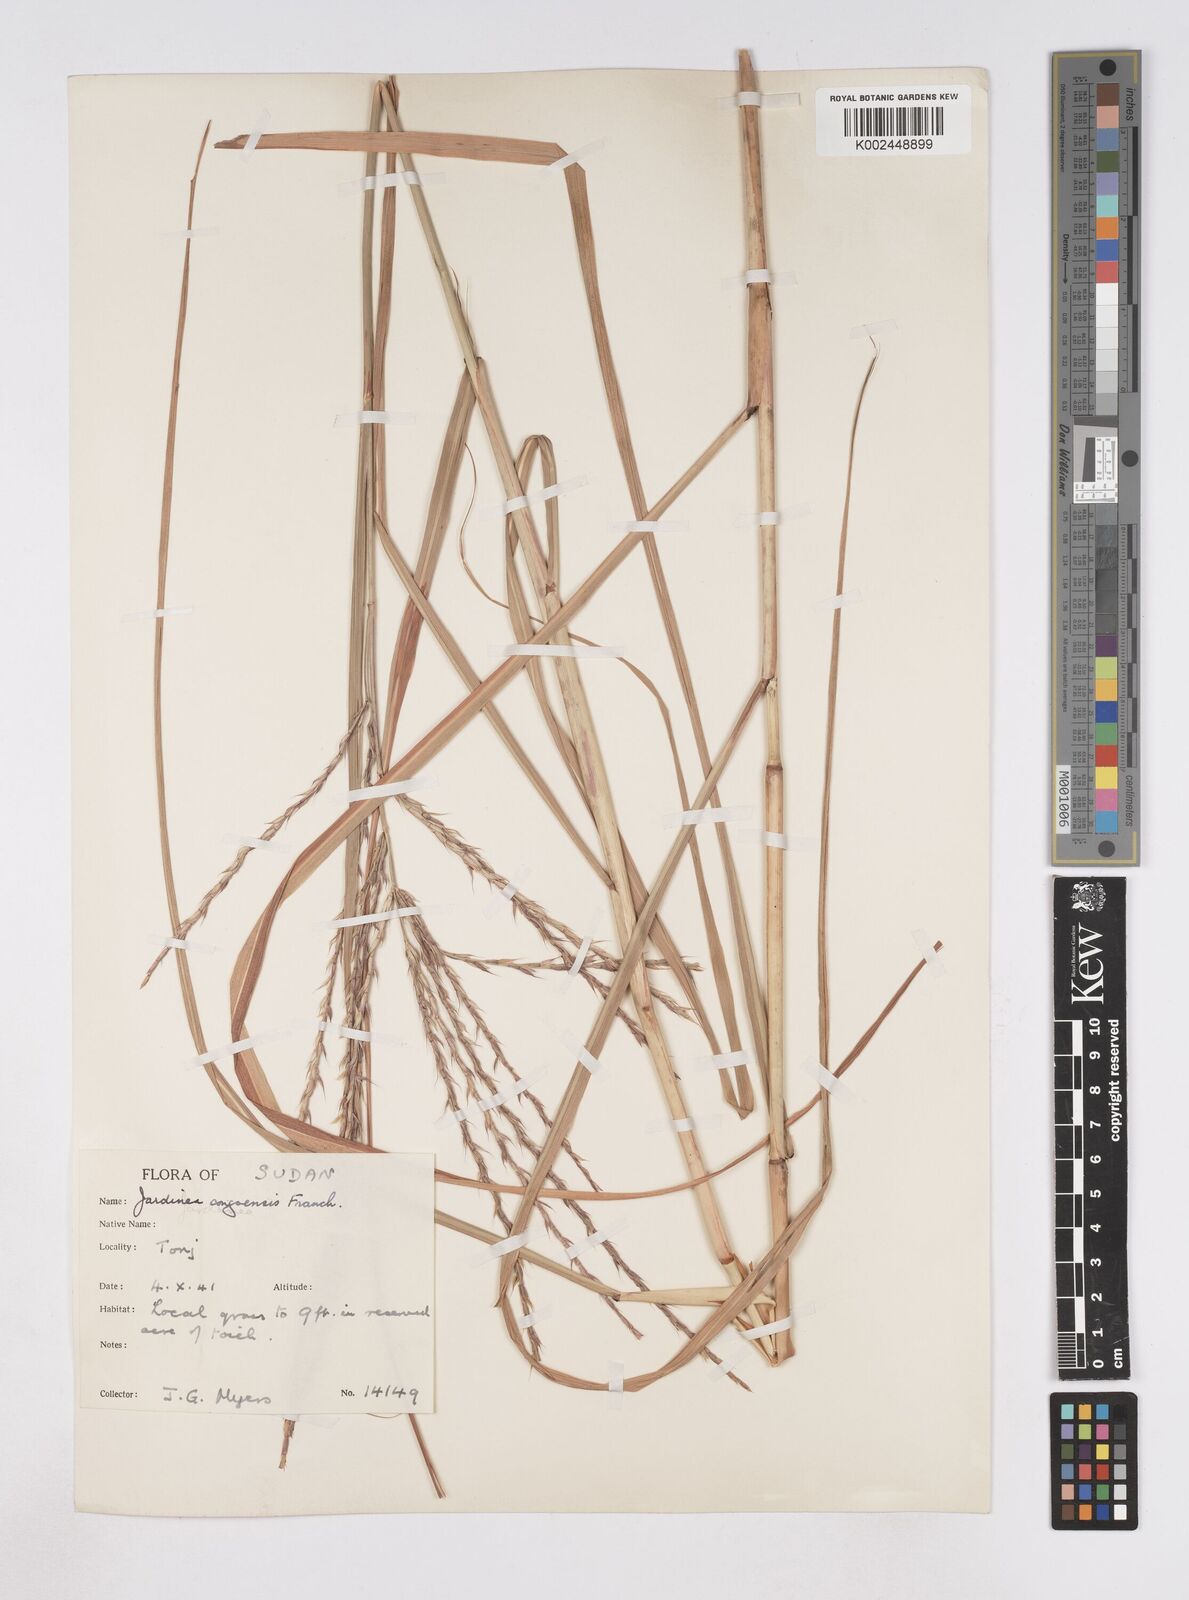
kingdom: Plantae
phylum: Tracheophyta
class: Liliopsida
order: Poales
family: Poaceae
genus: Phacelurus
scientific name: Phacelurus gabonensis
